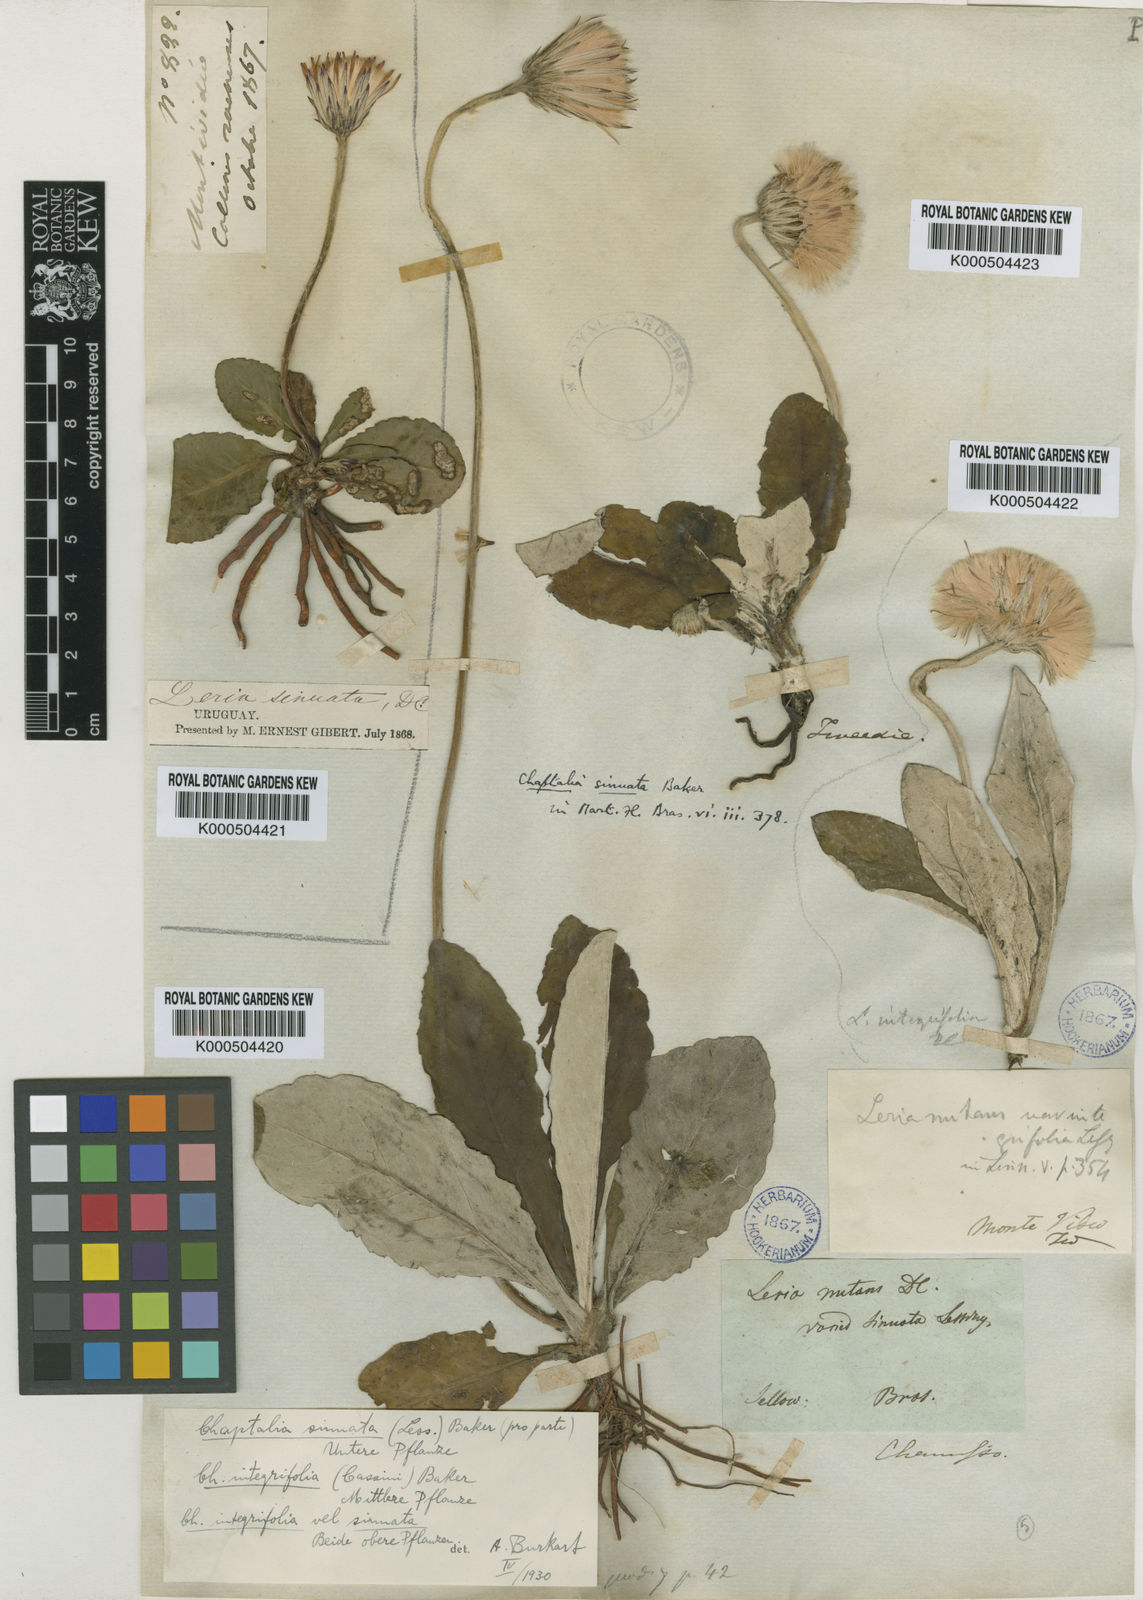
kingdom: Plantae
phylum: Tracheophyta
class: Magnoliopsida
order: Asterales
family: Asteraceae
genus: Chaptalia
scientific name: Chaptalia sinuata
